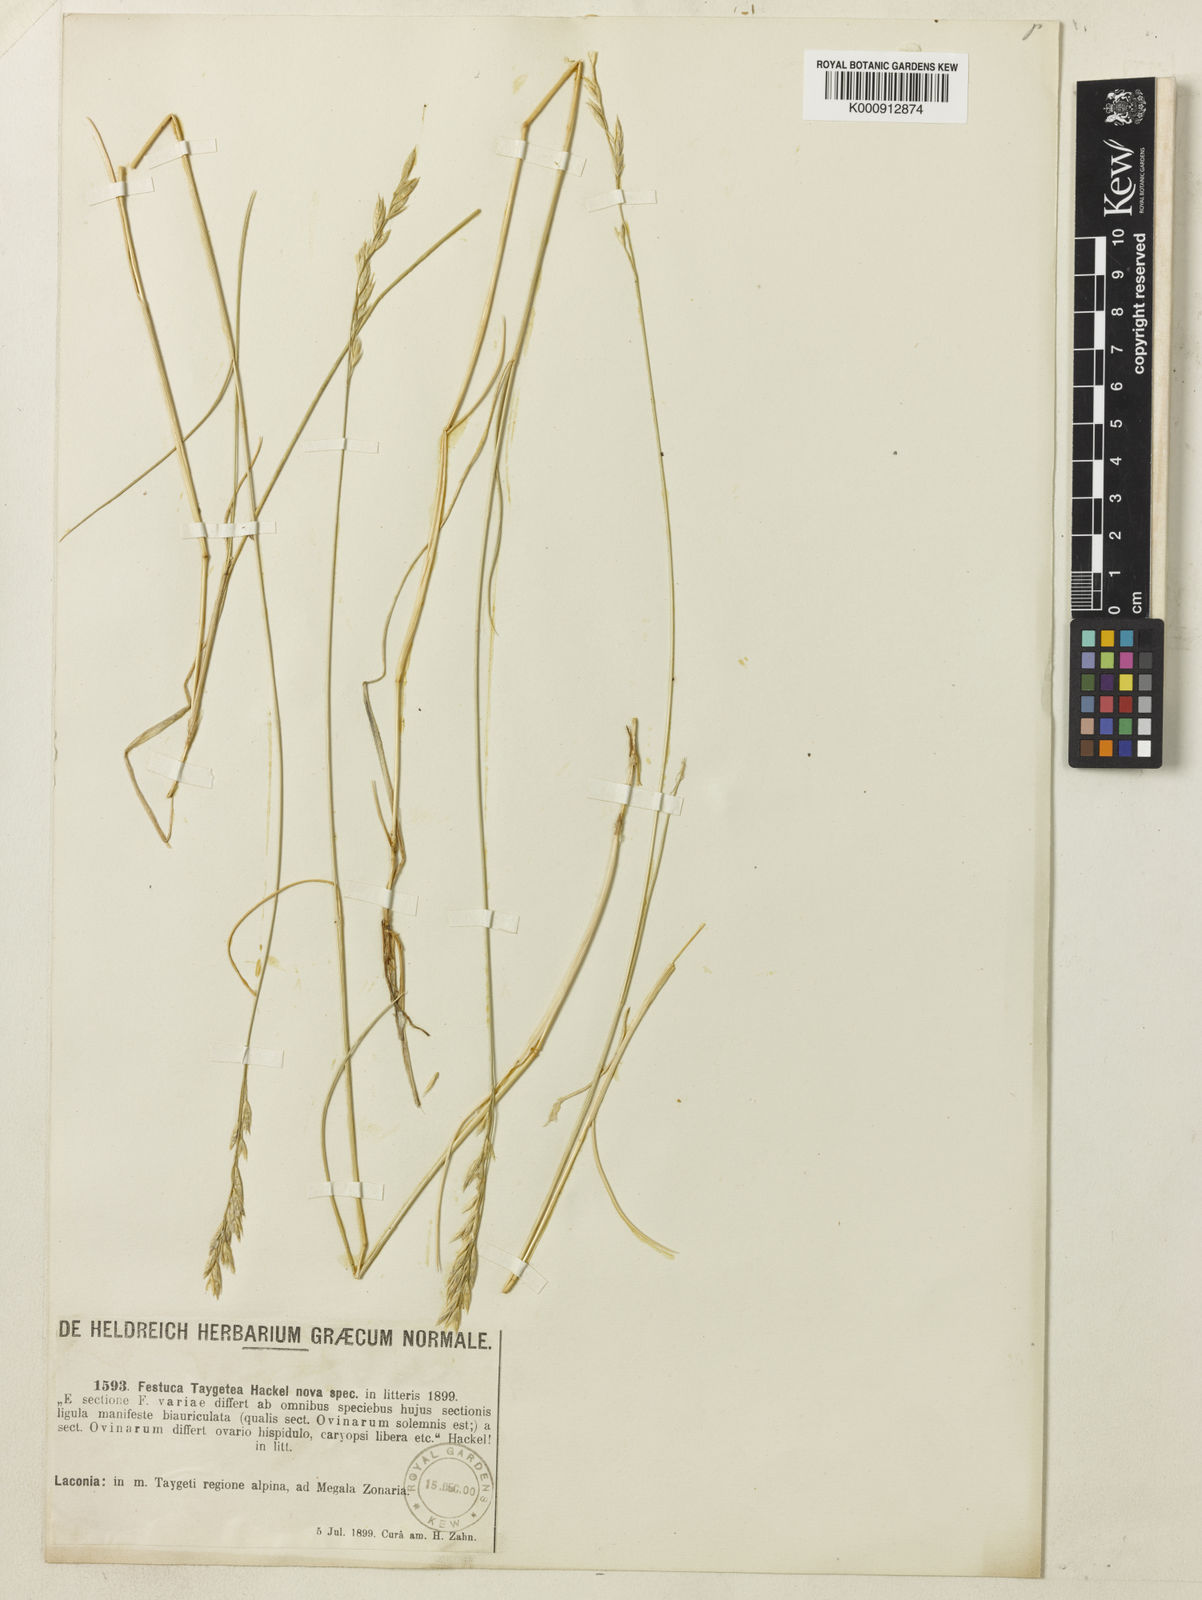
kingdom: Plantae
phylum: Tracheophyta
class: Liliopsida
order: Poales
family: Poaceae
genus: Festuca
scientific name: Festuca cyllenica
